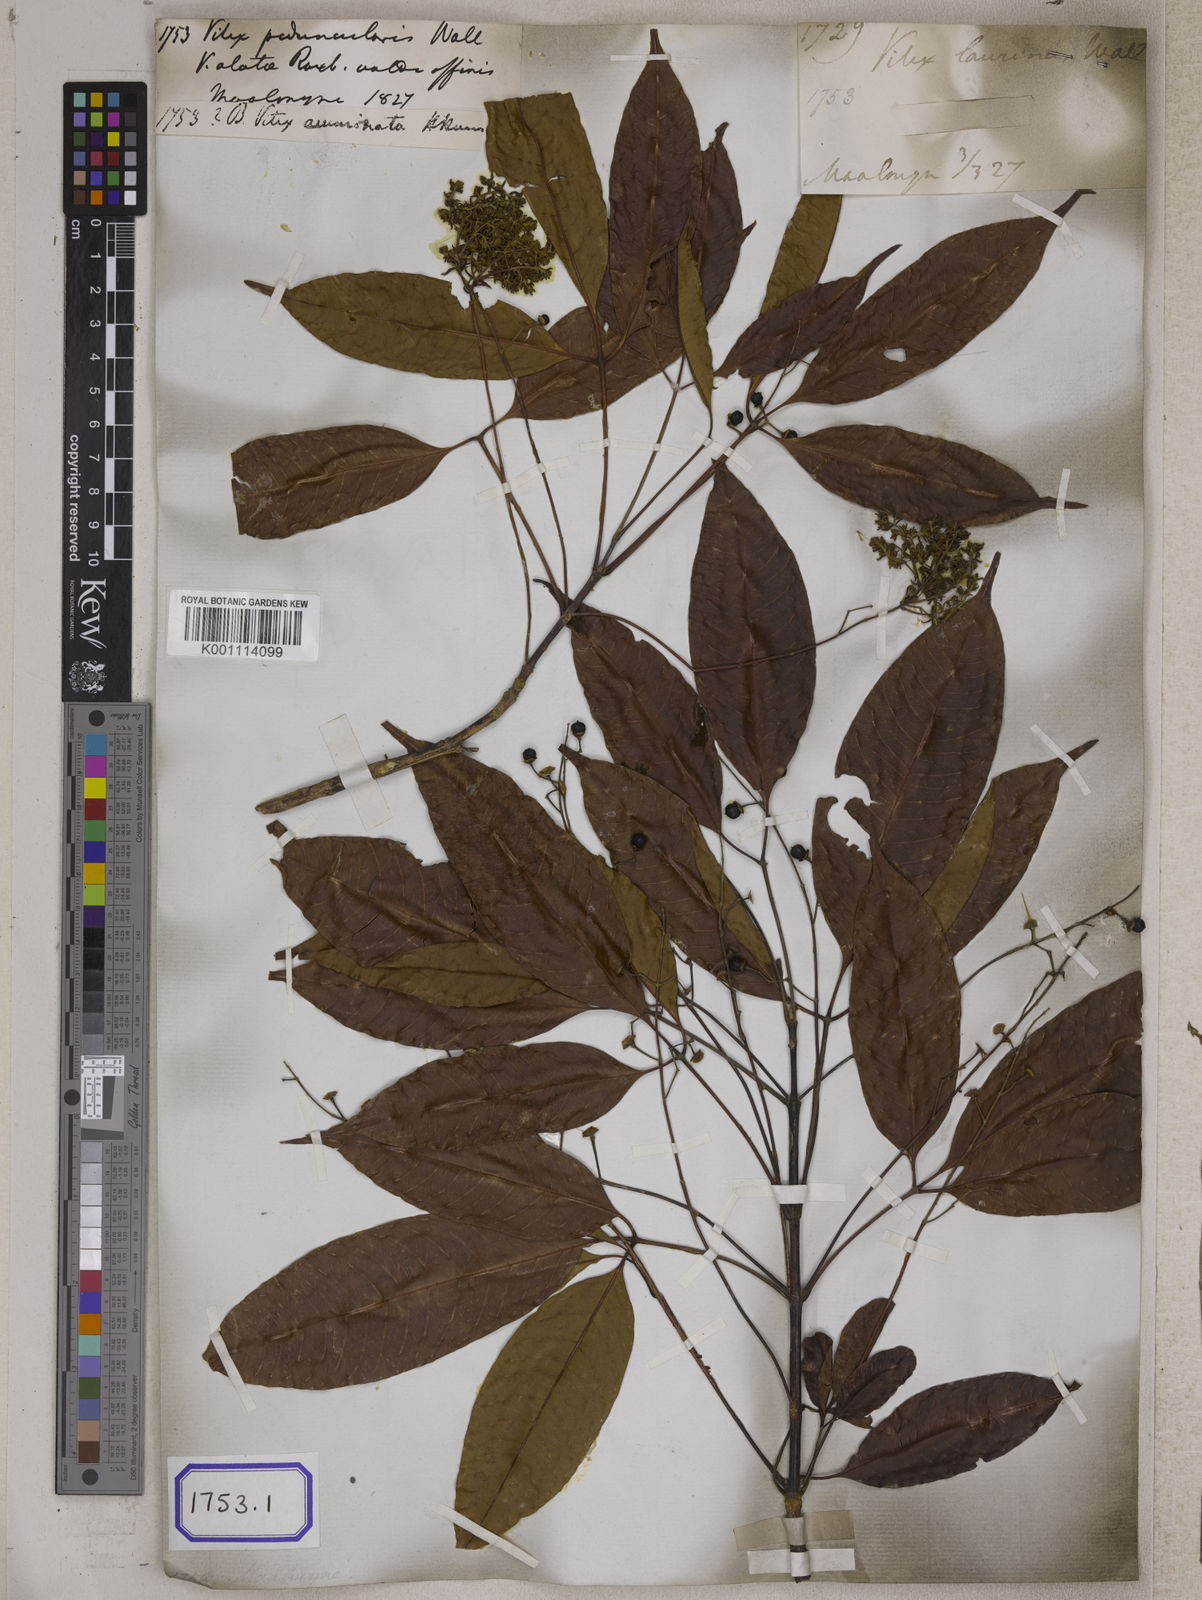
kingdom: Plantae
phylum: Tracheophyta
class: Magnoliopsida
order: Lamiales
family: Lamiaceae
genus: Vitex
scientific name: Vitex
